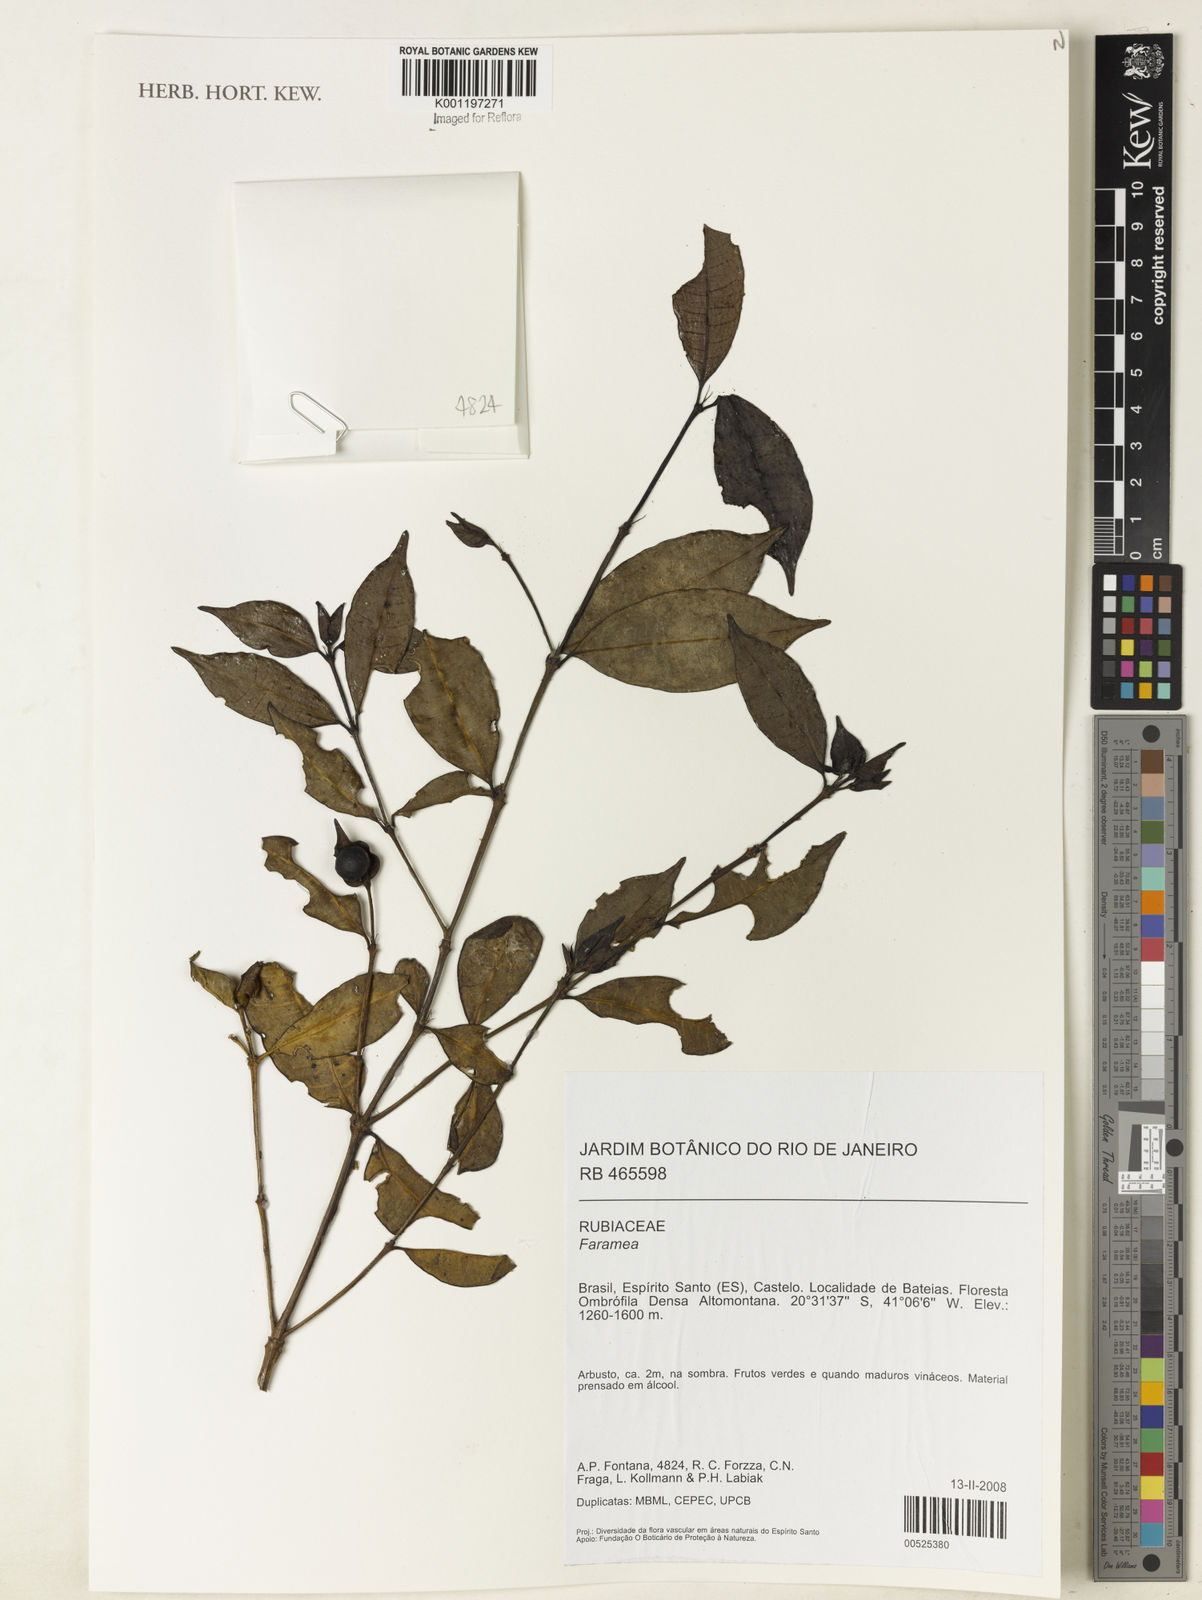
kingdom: Plantae
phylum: Tracheophyta
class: Magnoliopsida
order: Gentianales
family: Rubiaceae
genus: Faramea
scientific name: Faramea
